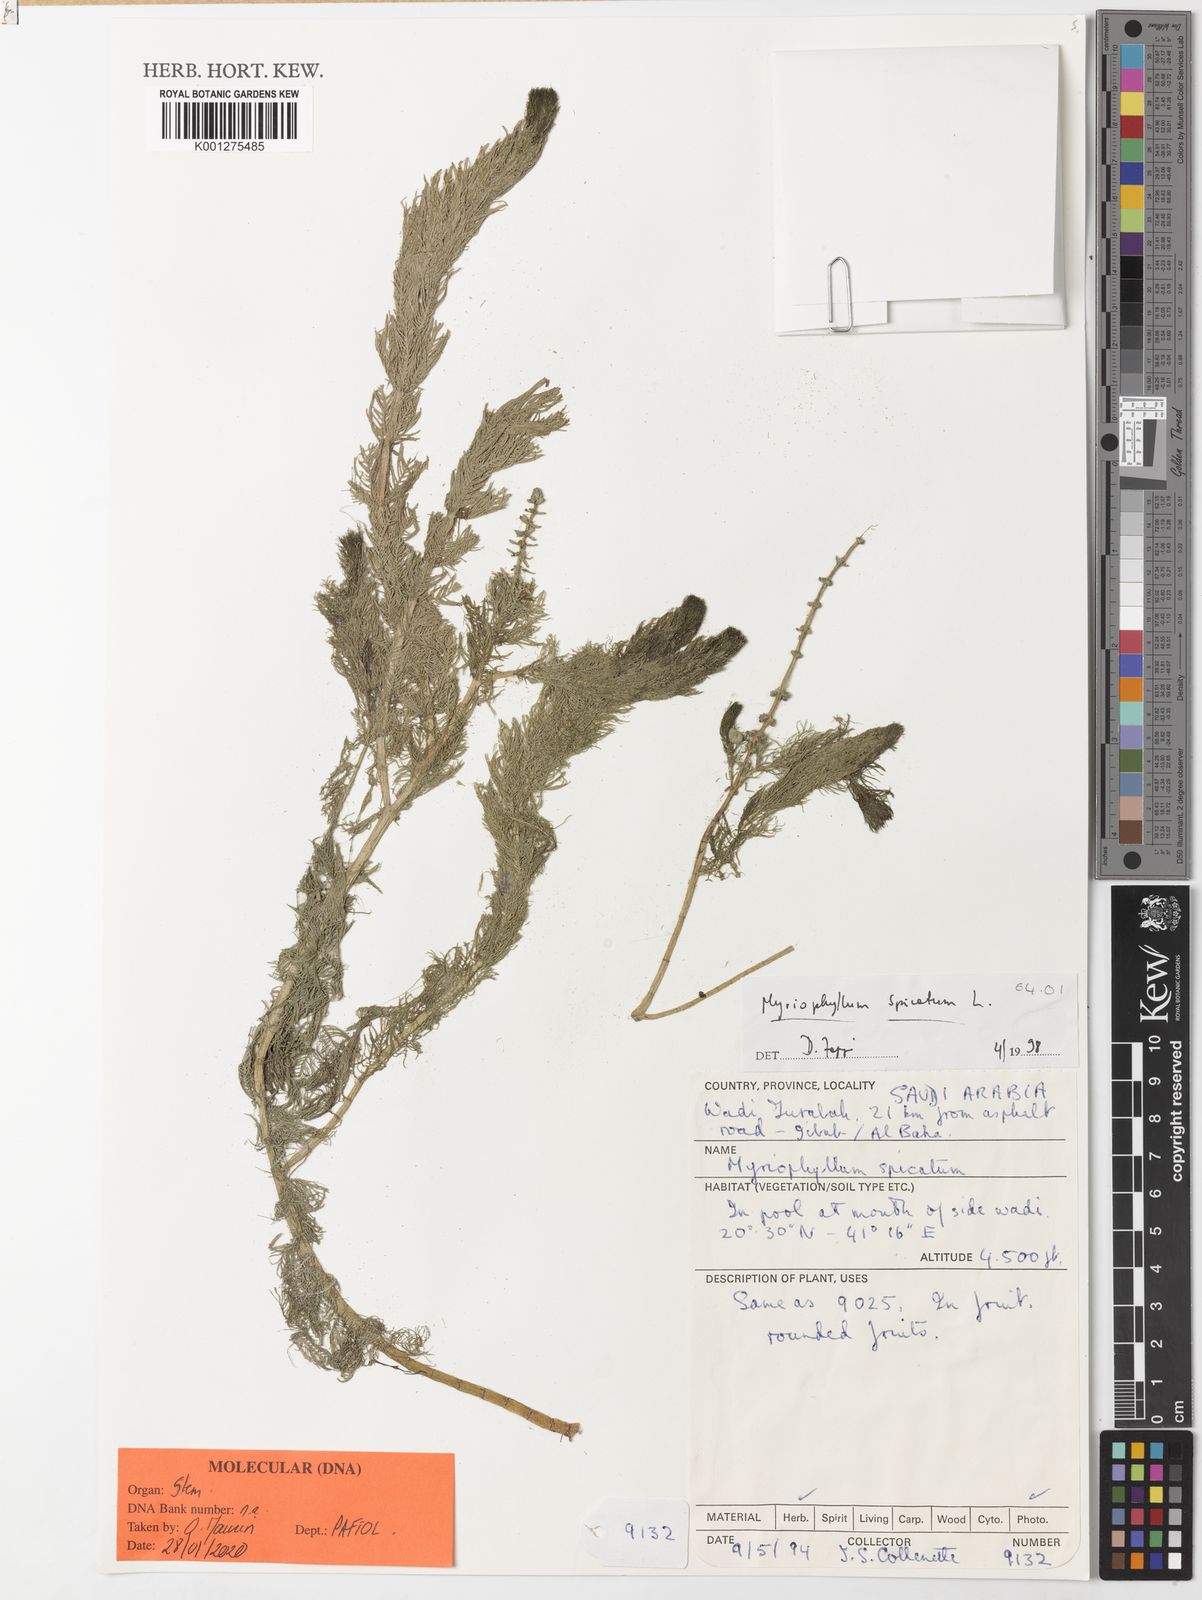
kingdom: Plantae
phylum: Tracheophyta
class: Magnoliopsida
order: Saxifragales
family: Haloragaceae
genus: Myriophyllum
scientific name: Myriophyllum spicatum
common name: Spiked water-milfoil
